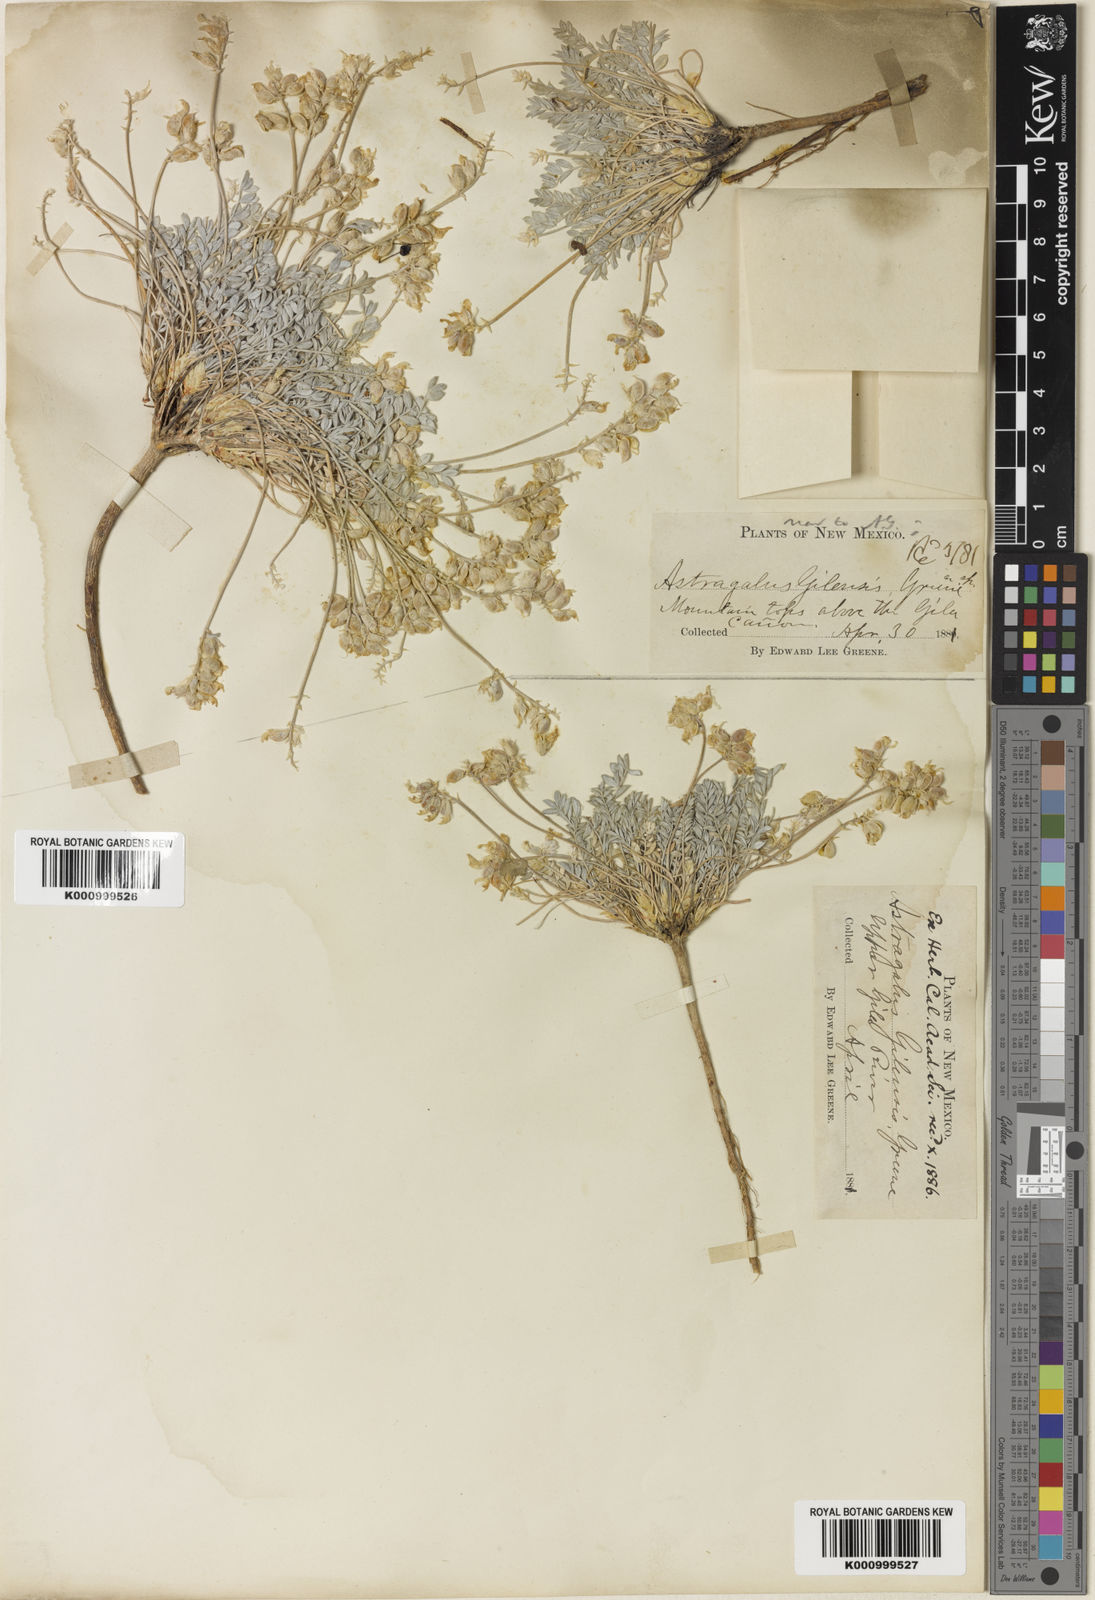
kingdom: Plantae
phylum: Tracheophyta
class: Magnoliopsida
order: Fabales
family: Fabaceae
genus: Astragalus
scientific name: Astragalus gilensis
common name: Gila milk-vetch
